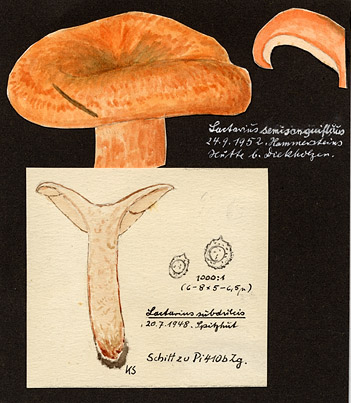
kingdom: Fungi
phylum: Basidiomycota
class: Agaricomycetes
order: Russulales
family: Russulaceae
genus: Lactarius
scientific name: Lactarius semisanguifluus
